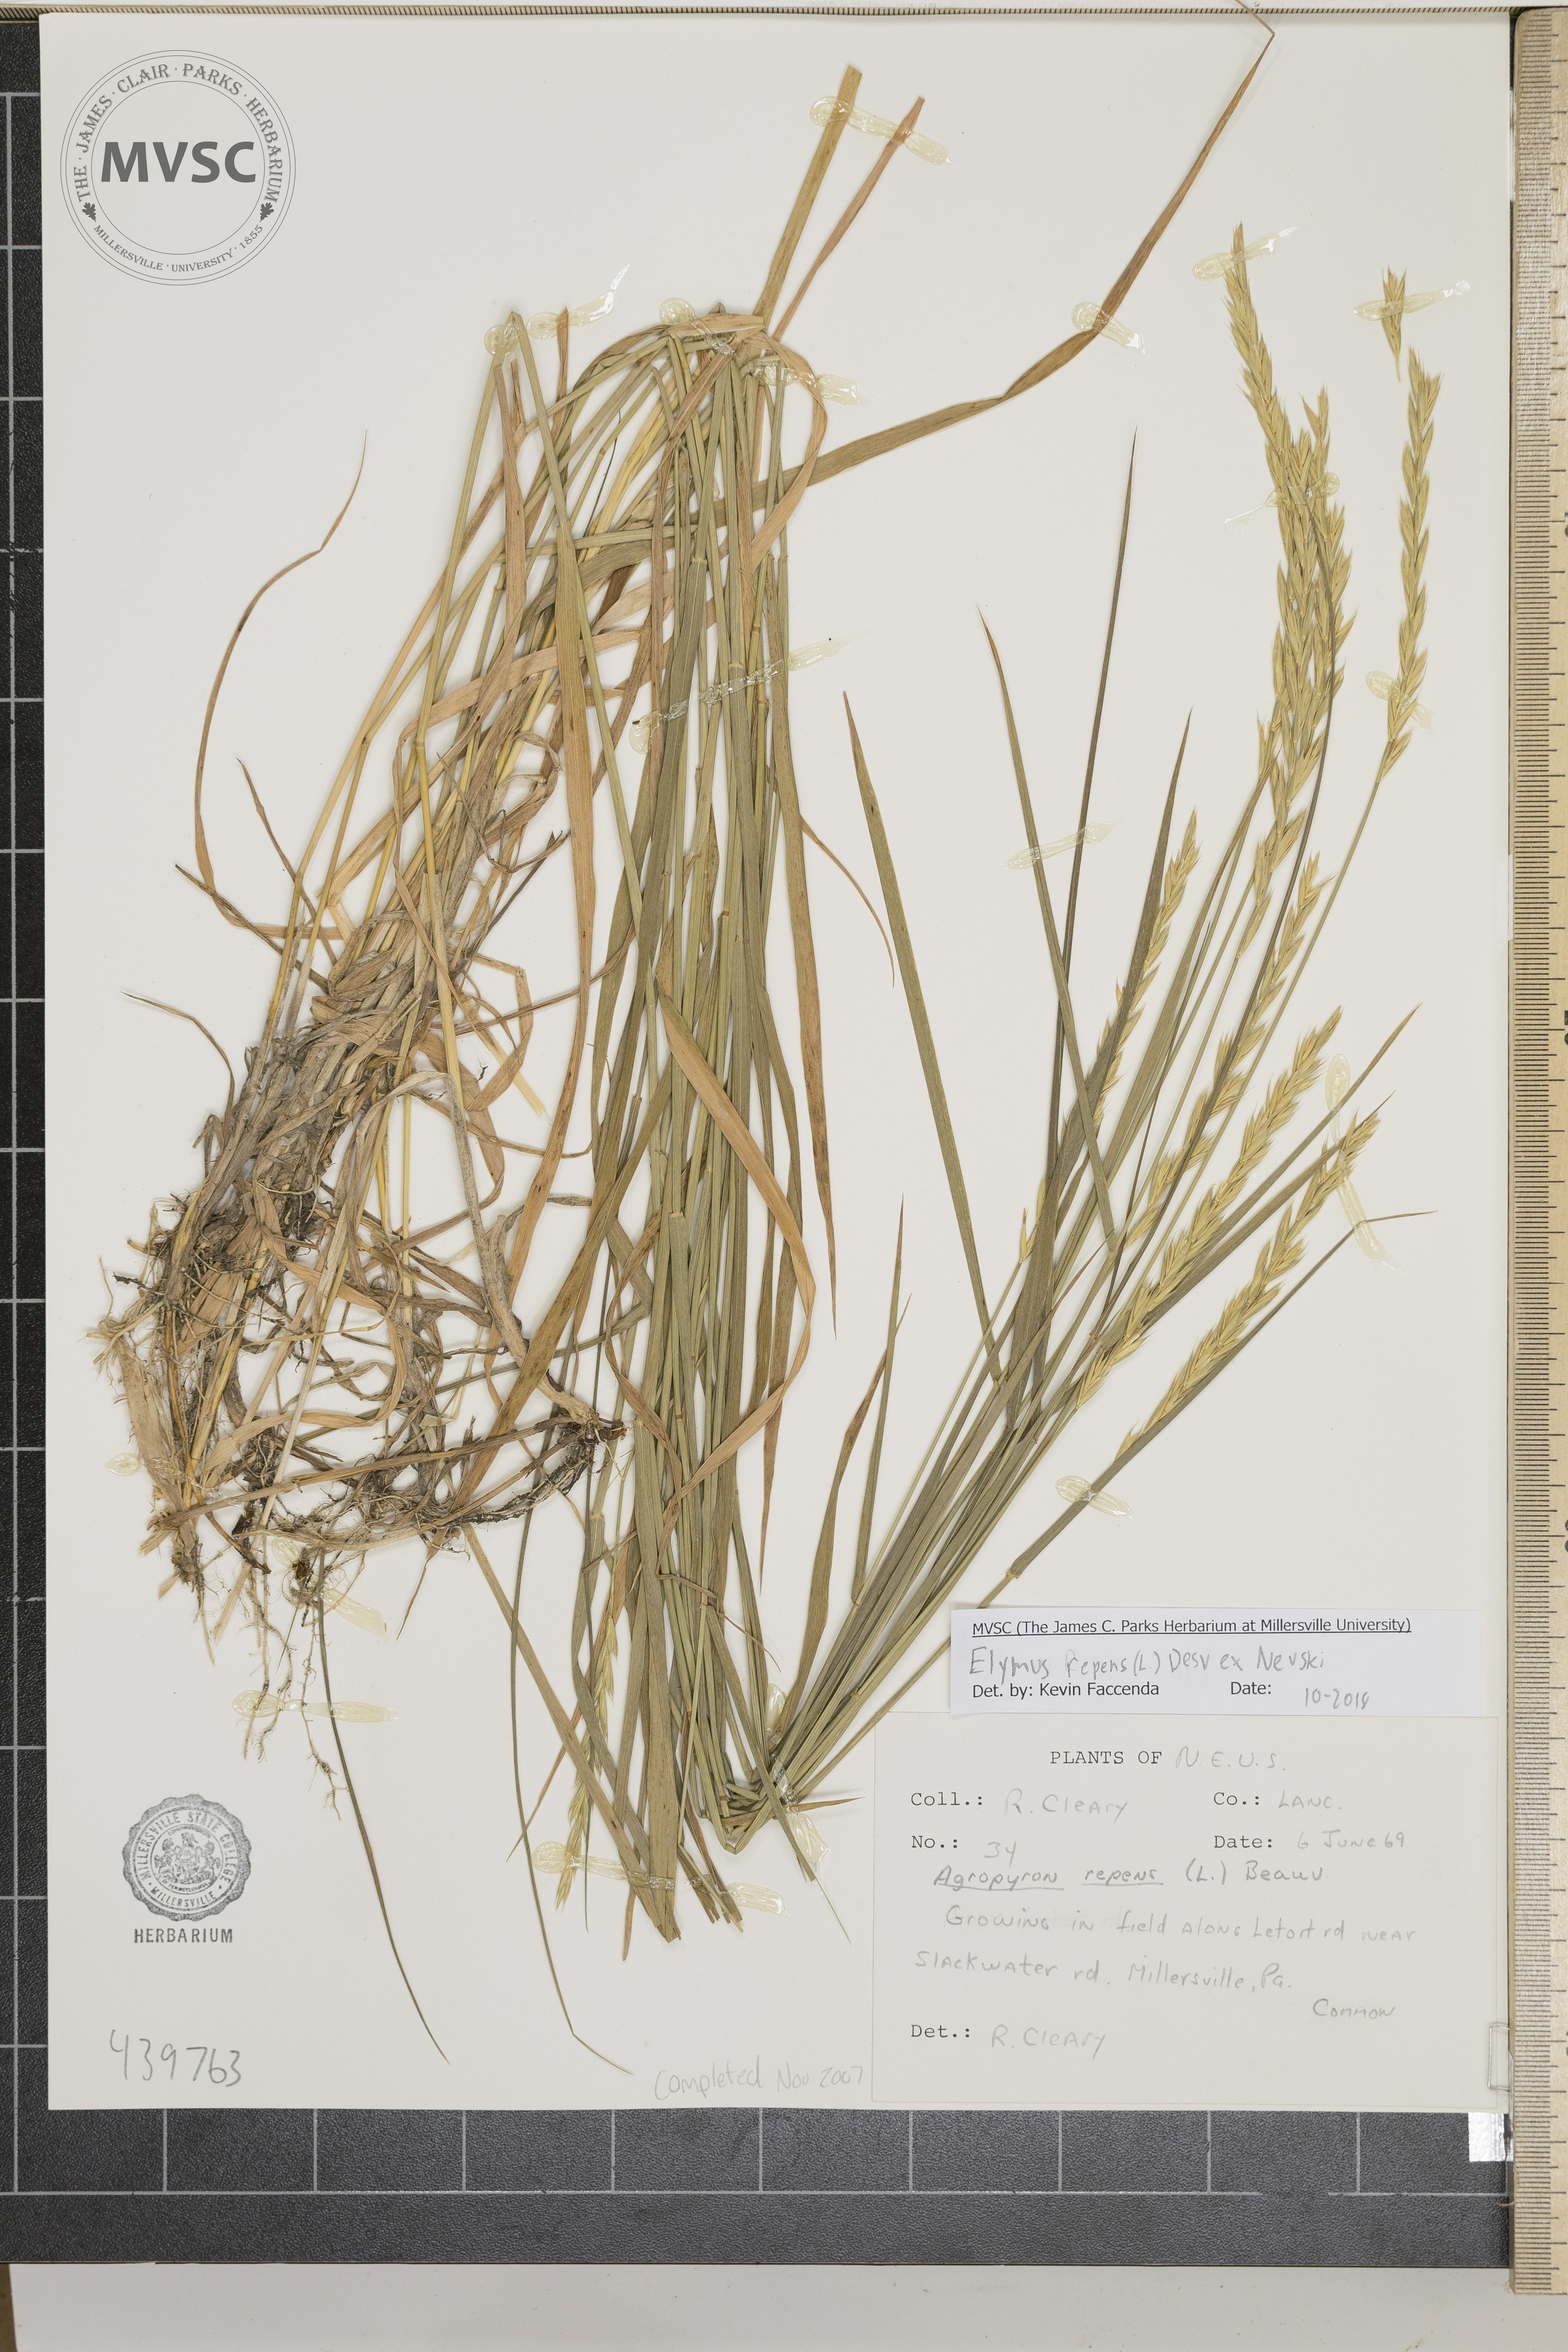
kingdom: Plantae
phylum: Tracheophyta
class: Liliopsida
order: Poales
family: Poaceae
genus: Elymus
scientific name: Elymus repens
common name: Quackgrass
